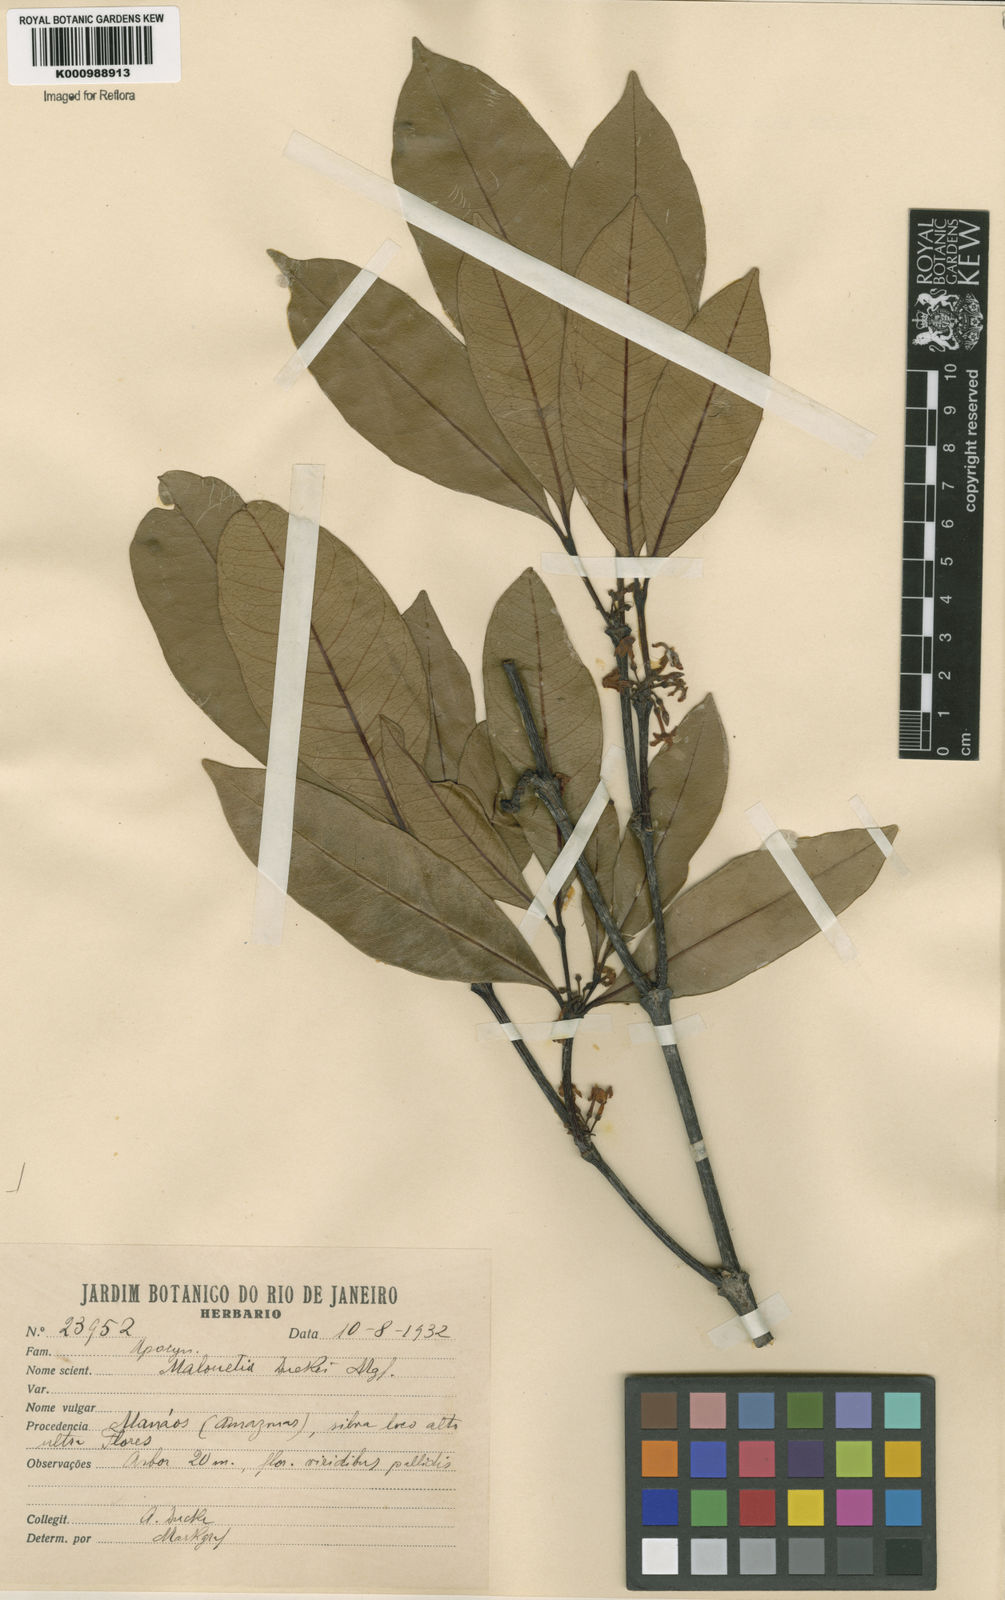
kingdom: Plantae
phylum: Tracheophyta
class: Magnoliopsida
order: Gentianales
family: Apocynaceae
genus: Malouetia
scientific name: Malouetia duckei
